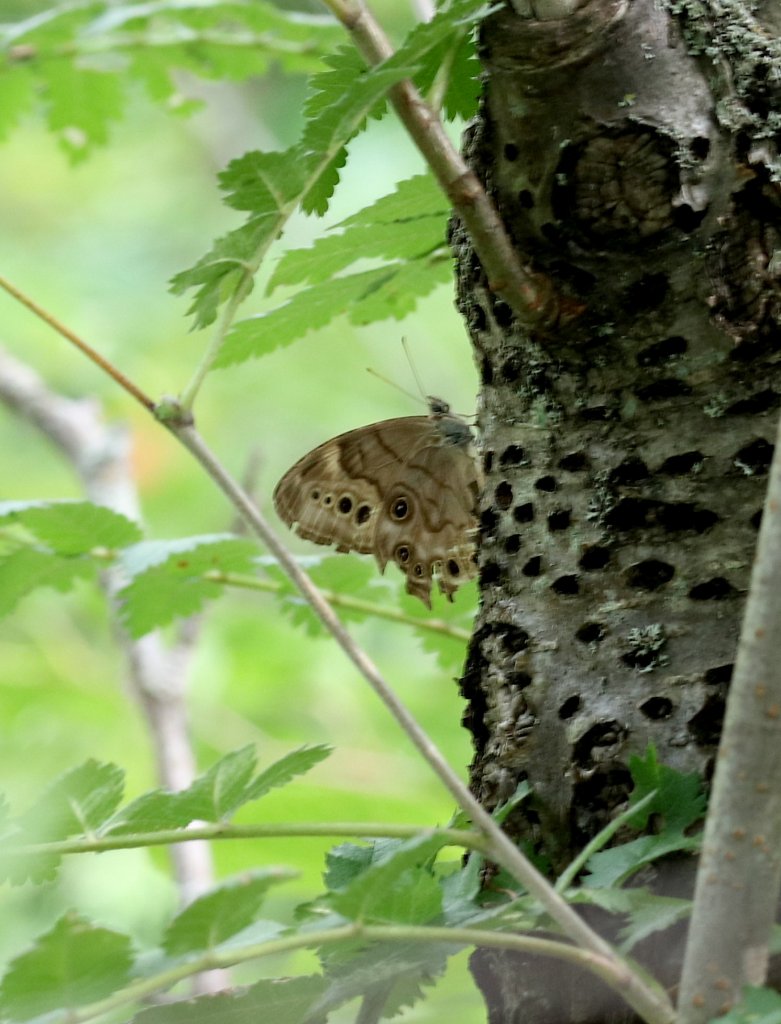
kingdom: Animalia
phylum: Arthropoda
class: Insecta
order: Lepidoptera
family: Nymphalidae
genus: Lethe
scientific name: Lethe anthedon
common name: Northern Pearly-Eye
